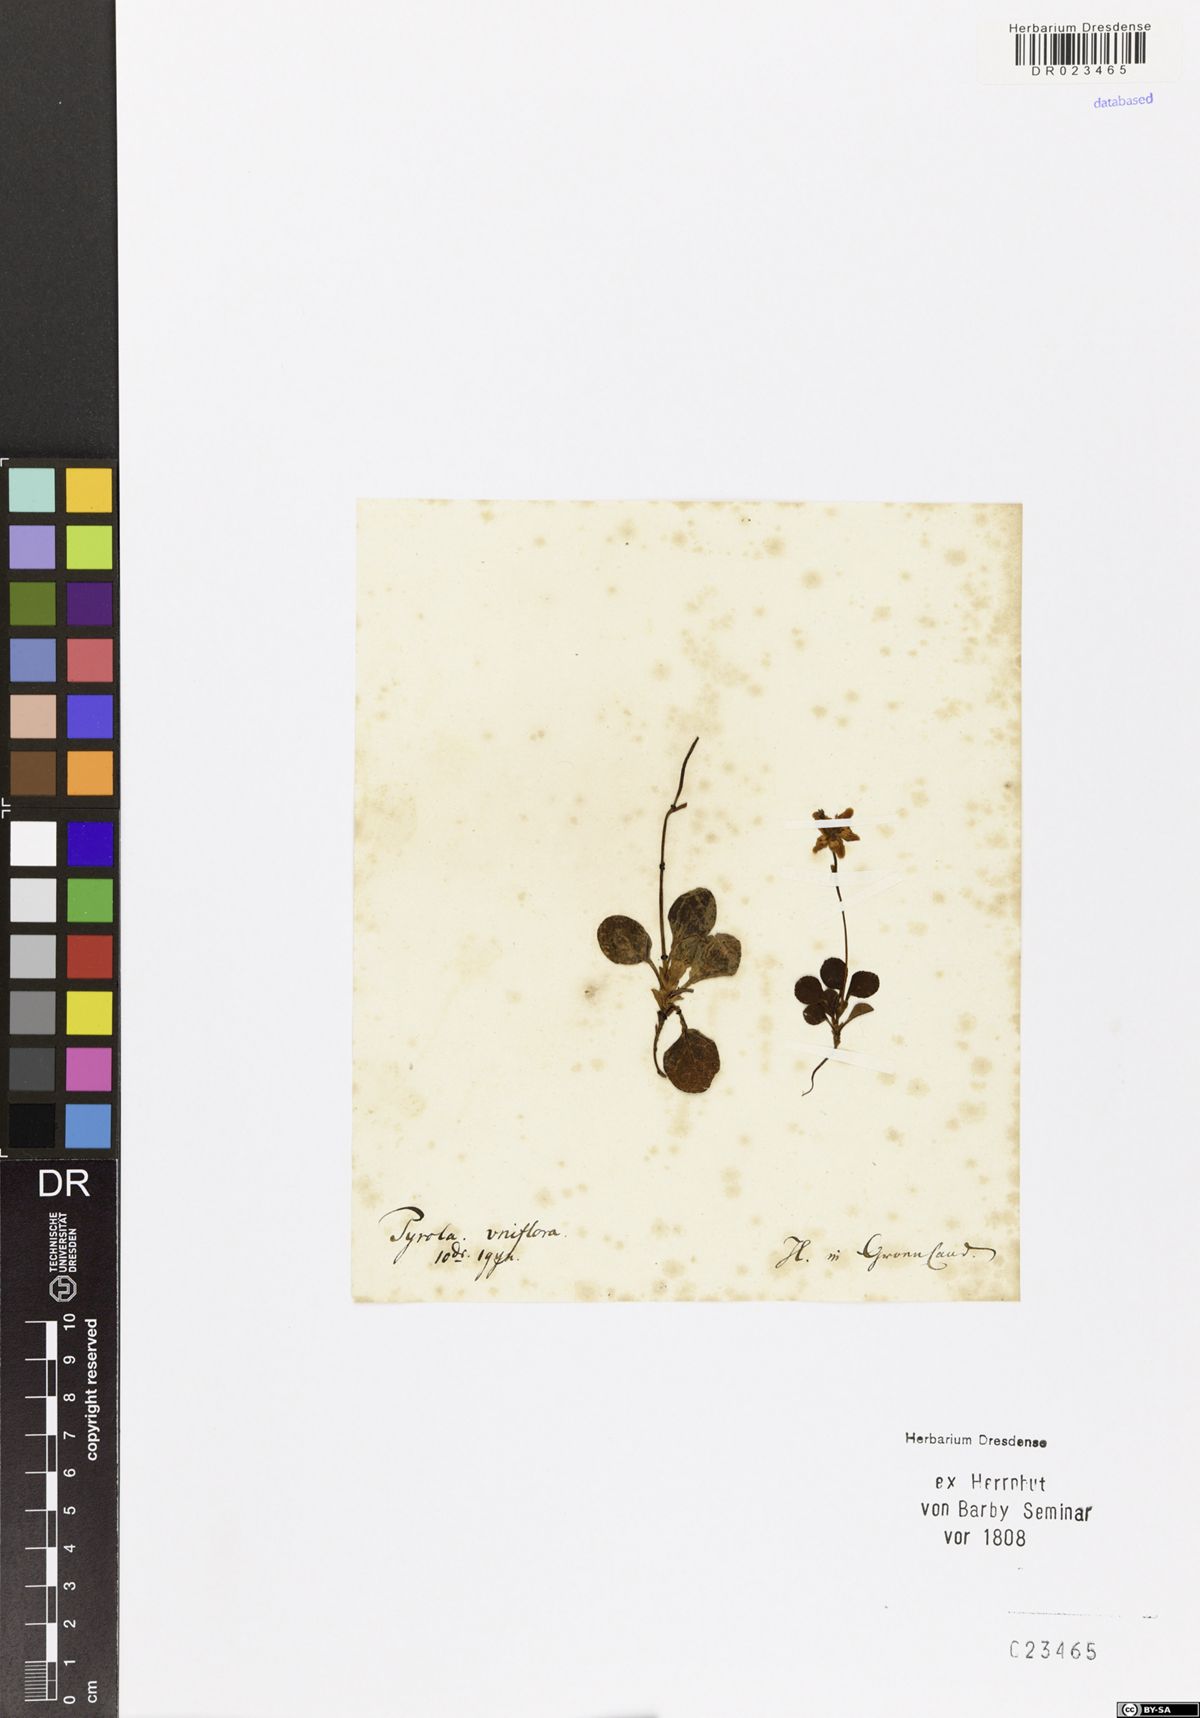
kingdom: Plantae
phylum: Tracheophyta
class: Magnoliopsida
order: Ericales
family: Ericaceae
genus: Moneses
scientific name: Moneses uniflora
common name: One-flowered wintergreen
